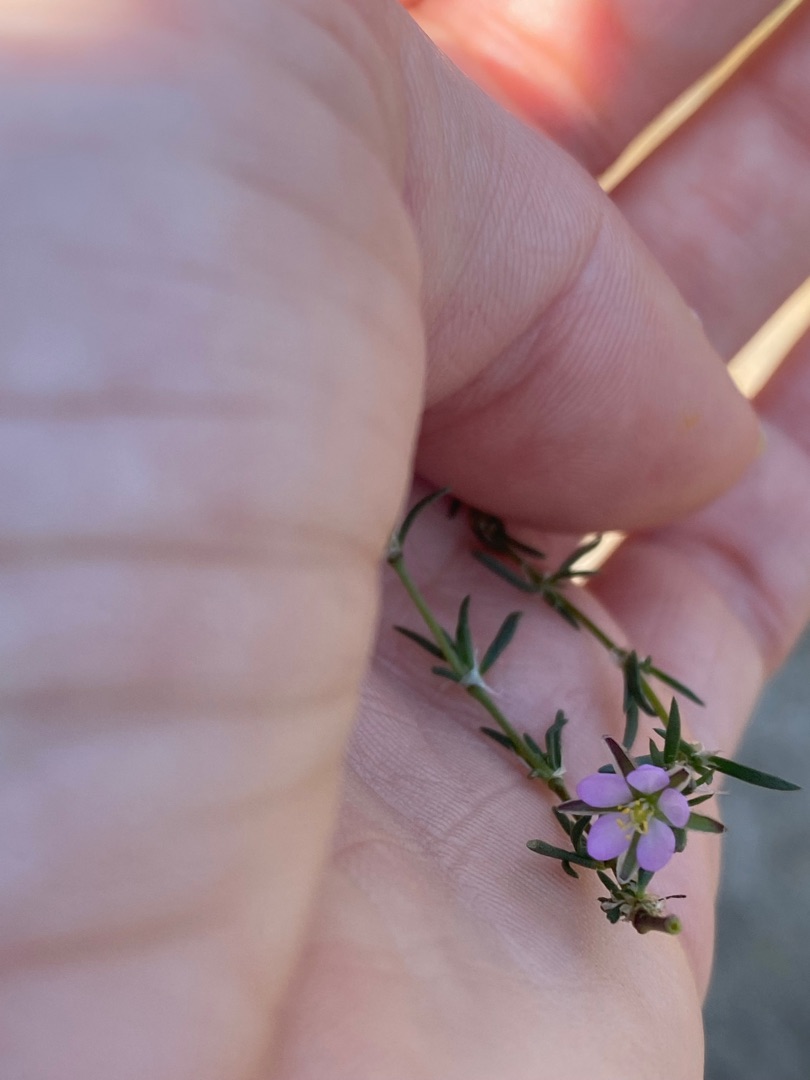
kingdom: Plantae
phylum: Tracheophyta
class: Magnoliopsida
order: Caryophyllales
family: Caryophyllaceae
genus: Spergularia
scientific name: Spergularia rubra
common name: Mark-hindeknæ
